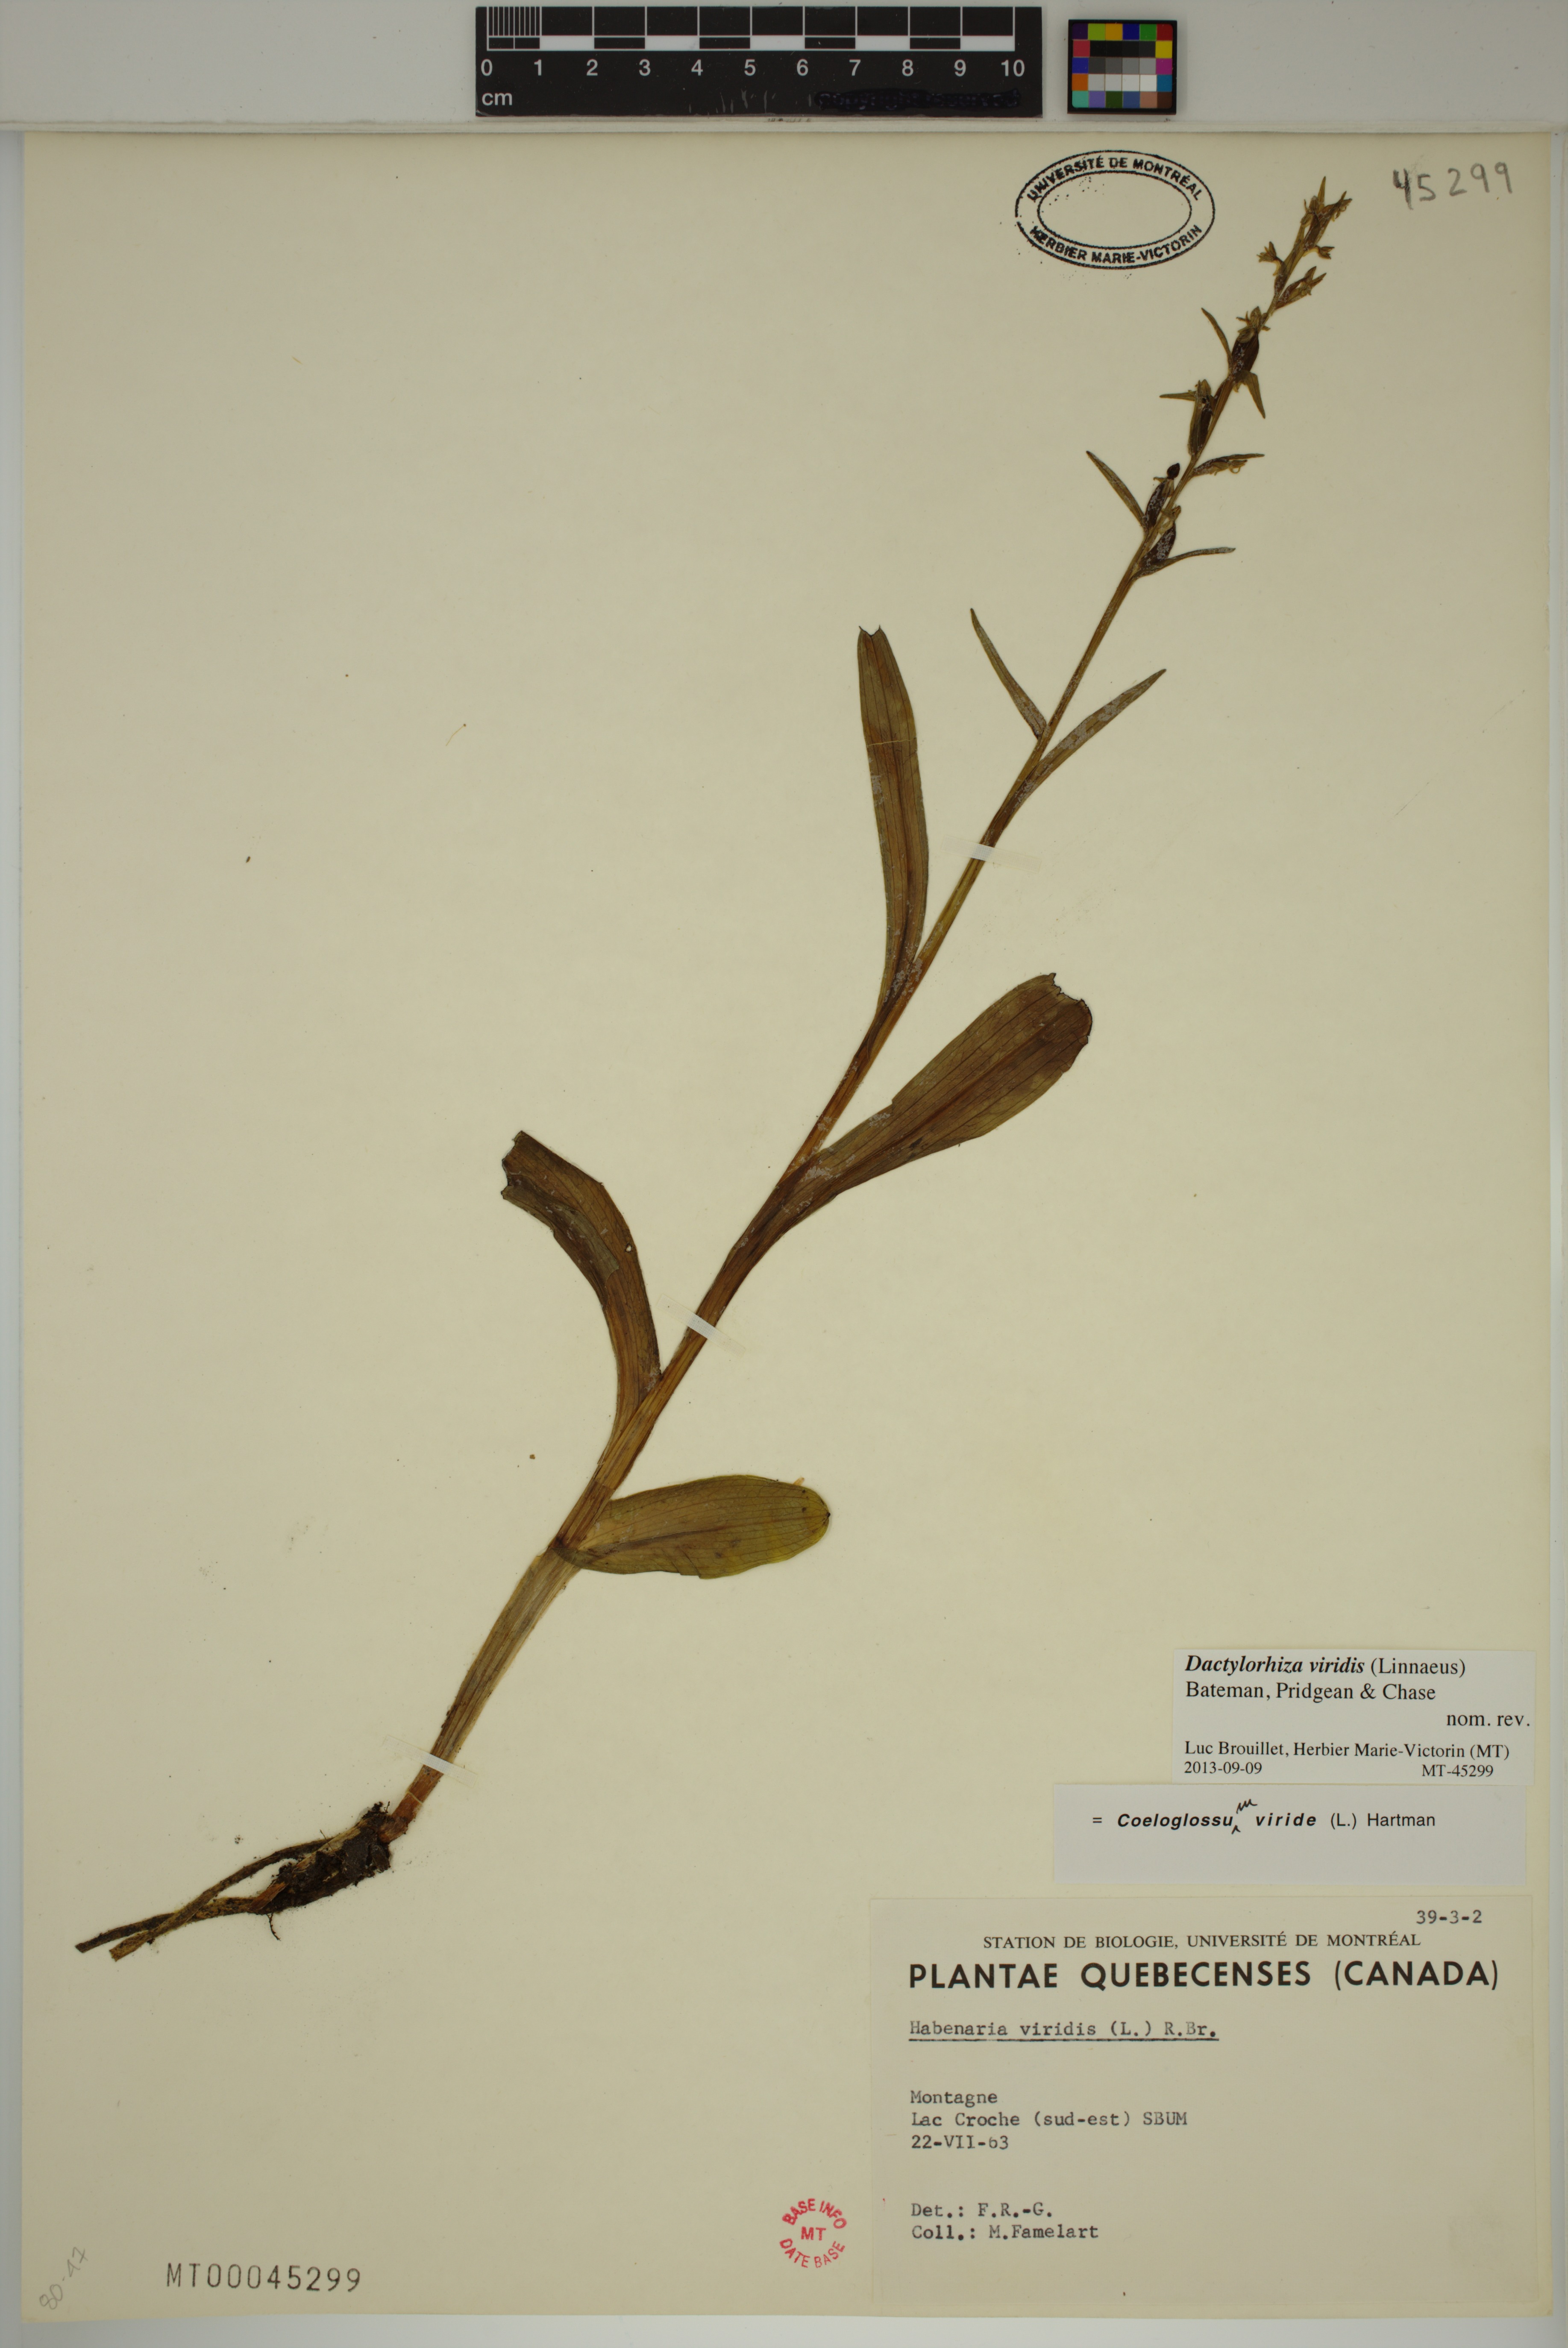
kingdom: Plantae
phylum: Tracheophyta
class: Liliopsida
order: Asparagales
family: Orchidaceae
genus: Dactylorhiza
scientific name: Dactylorhiza viridis
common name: Longbract frog orchid
